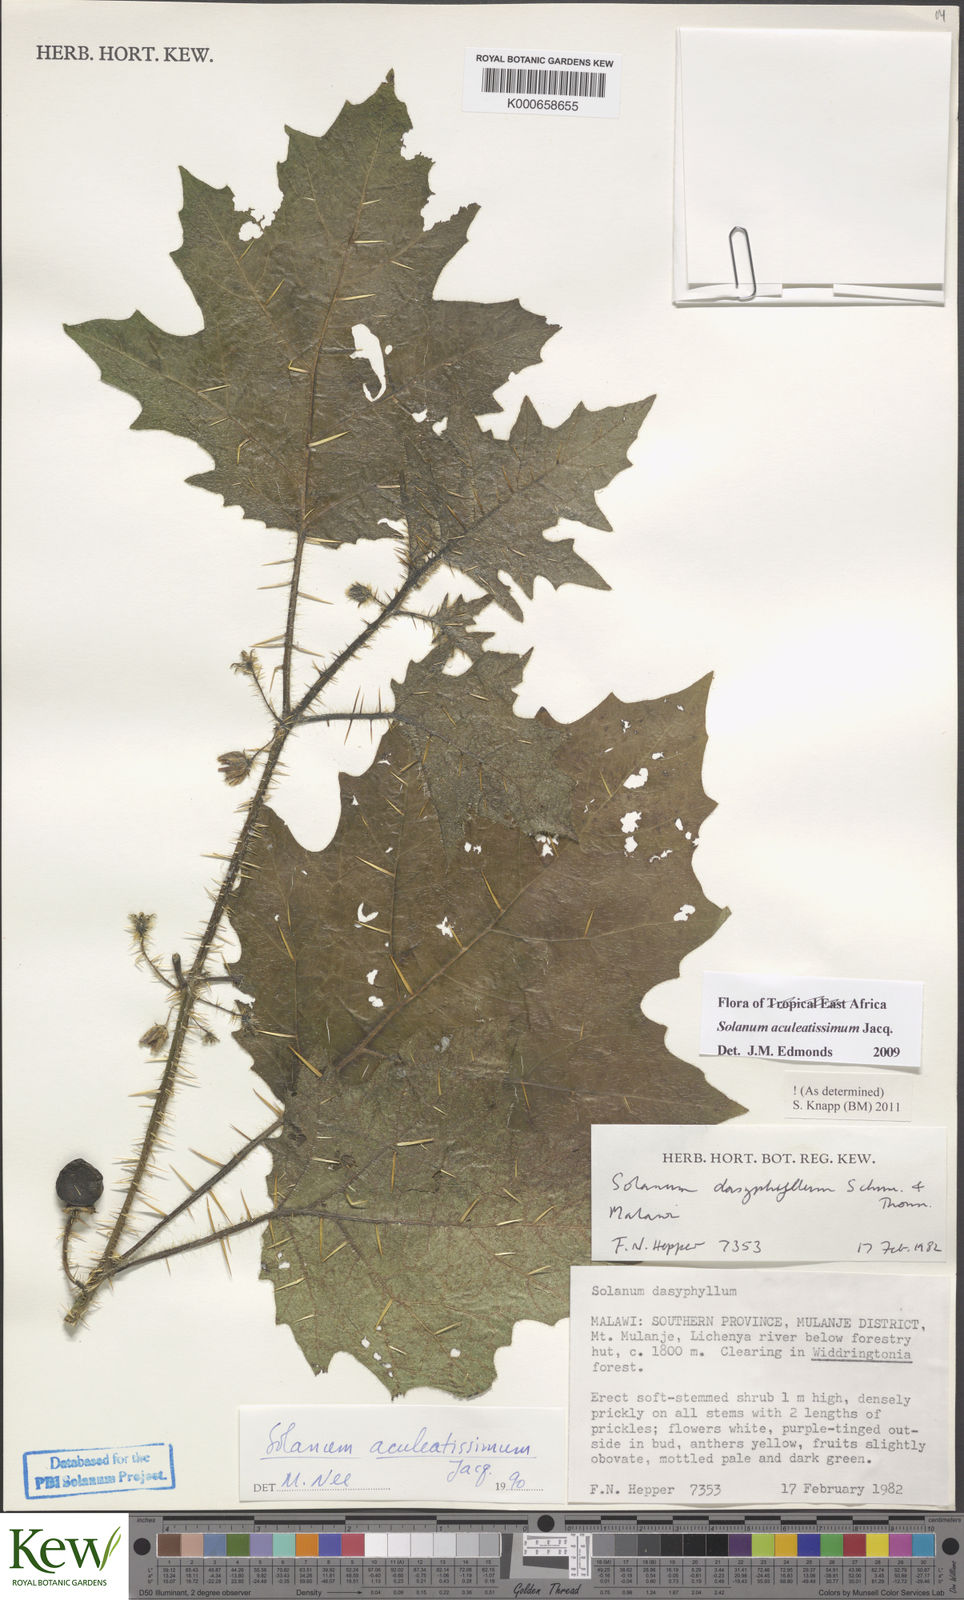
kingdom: Plantae
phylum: Tracheophyta
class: Magnoliopsida
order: Solanales
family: Solanaceae
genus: Solanum
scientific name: Solanum aculeatissimum
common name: Dutch eggplant
